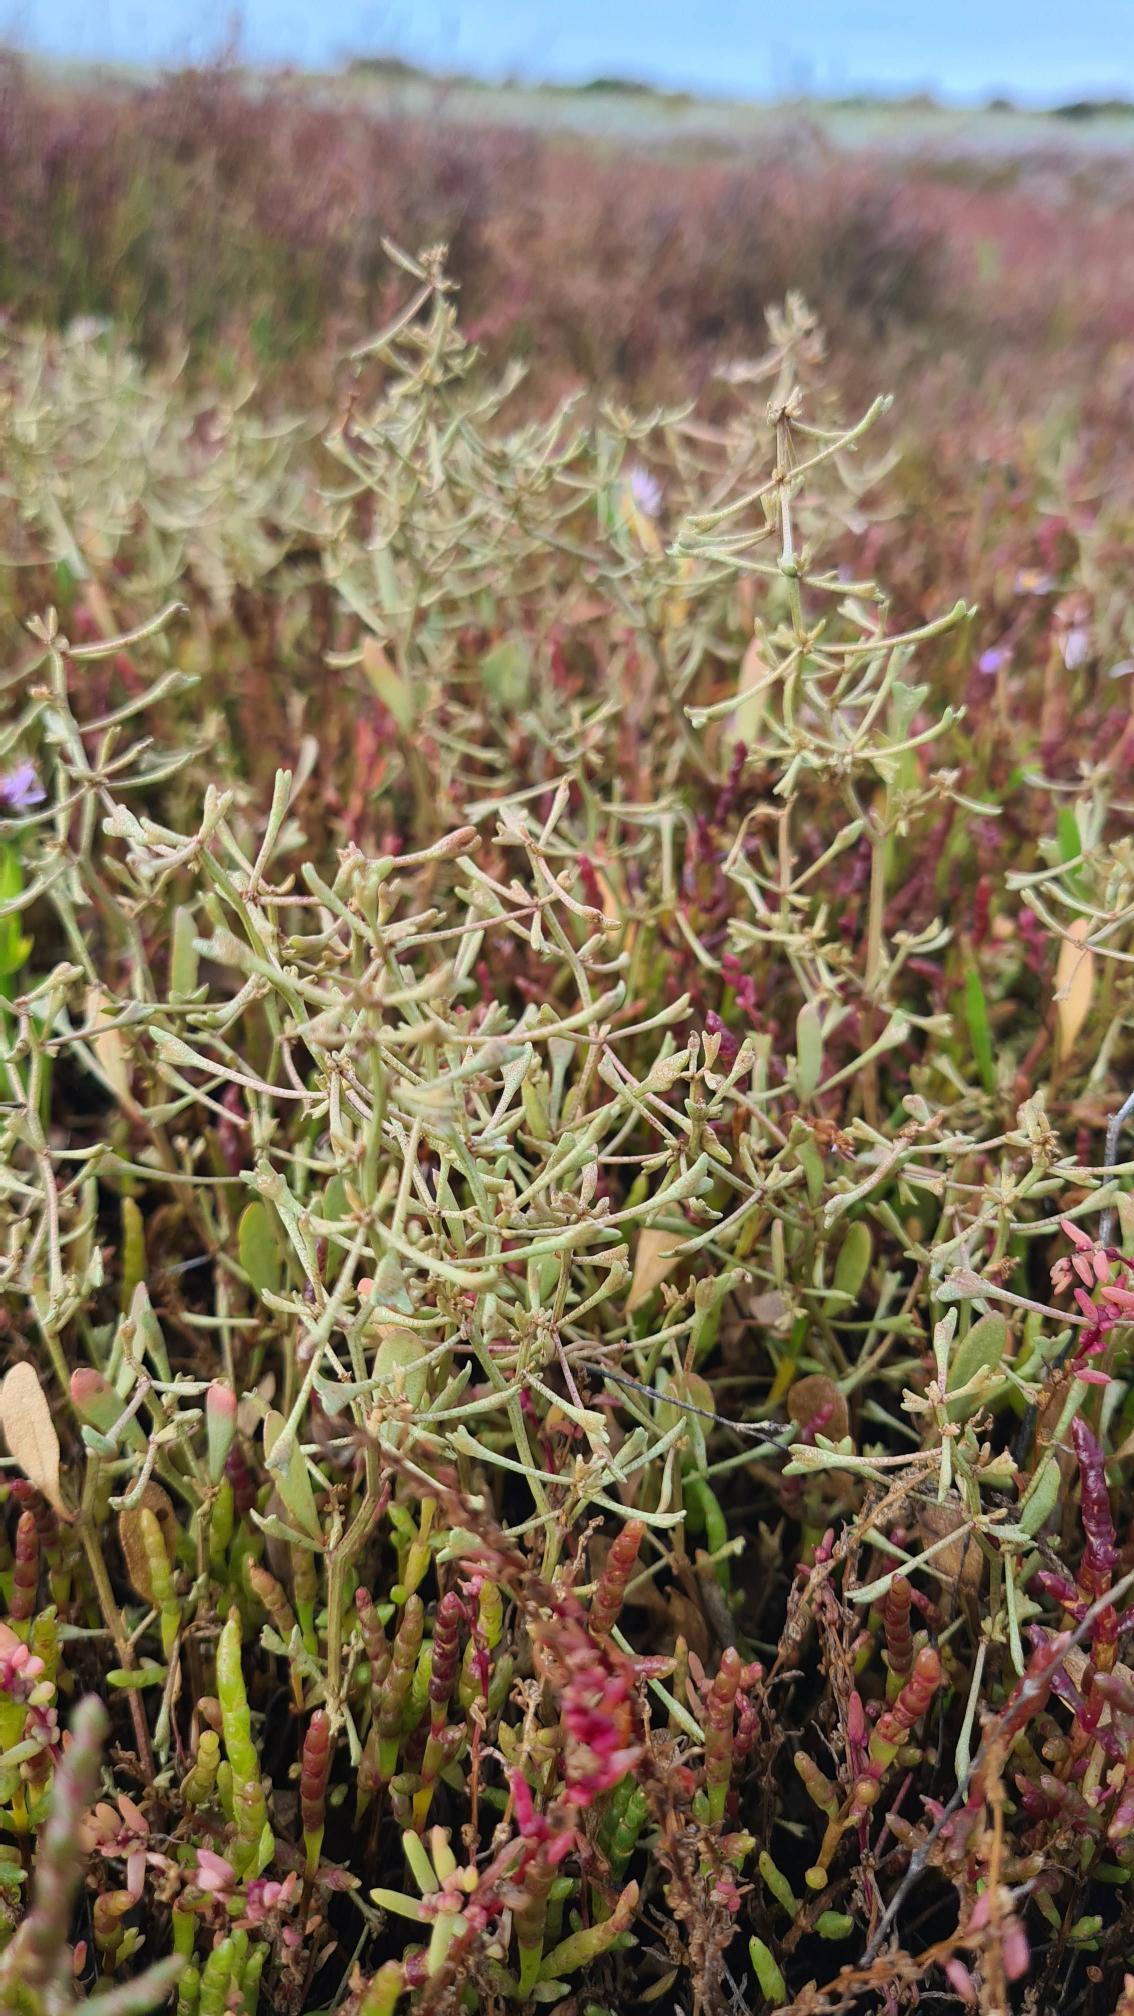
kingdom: Plantae
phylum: Tracheophyta
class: Magnoliopsida
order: Caryophyllales
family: Amaranthaceae
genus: Halimione
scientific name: Halimione pedunculata
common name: Stilket kilebæger
